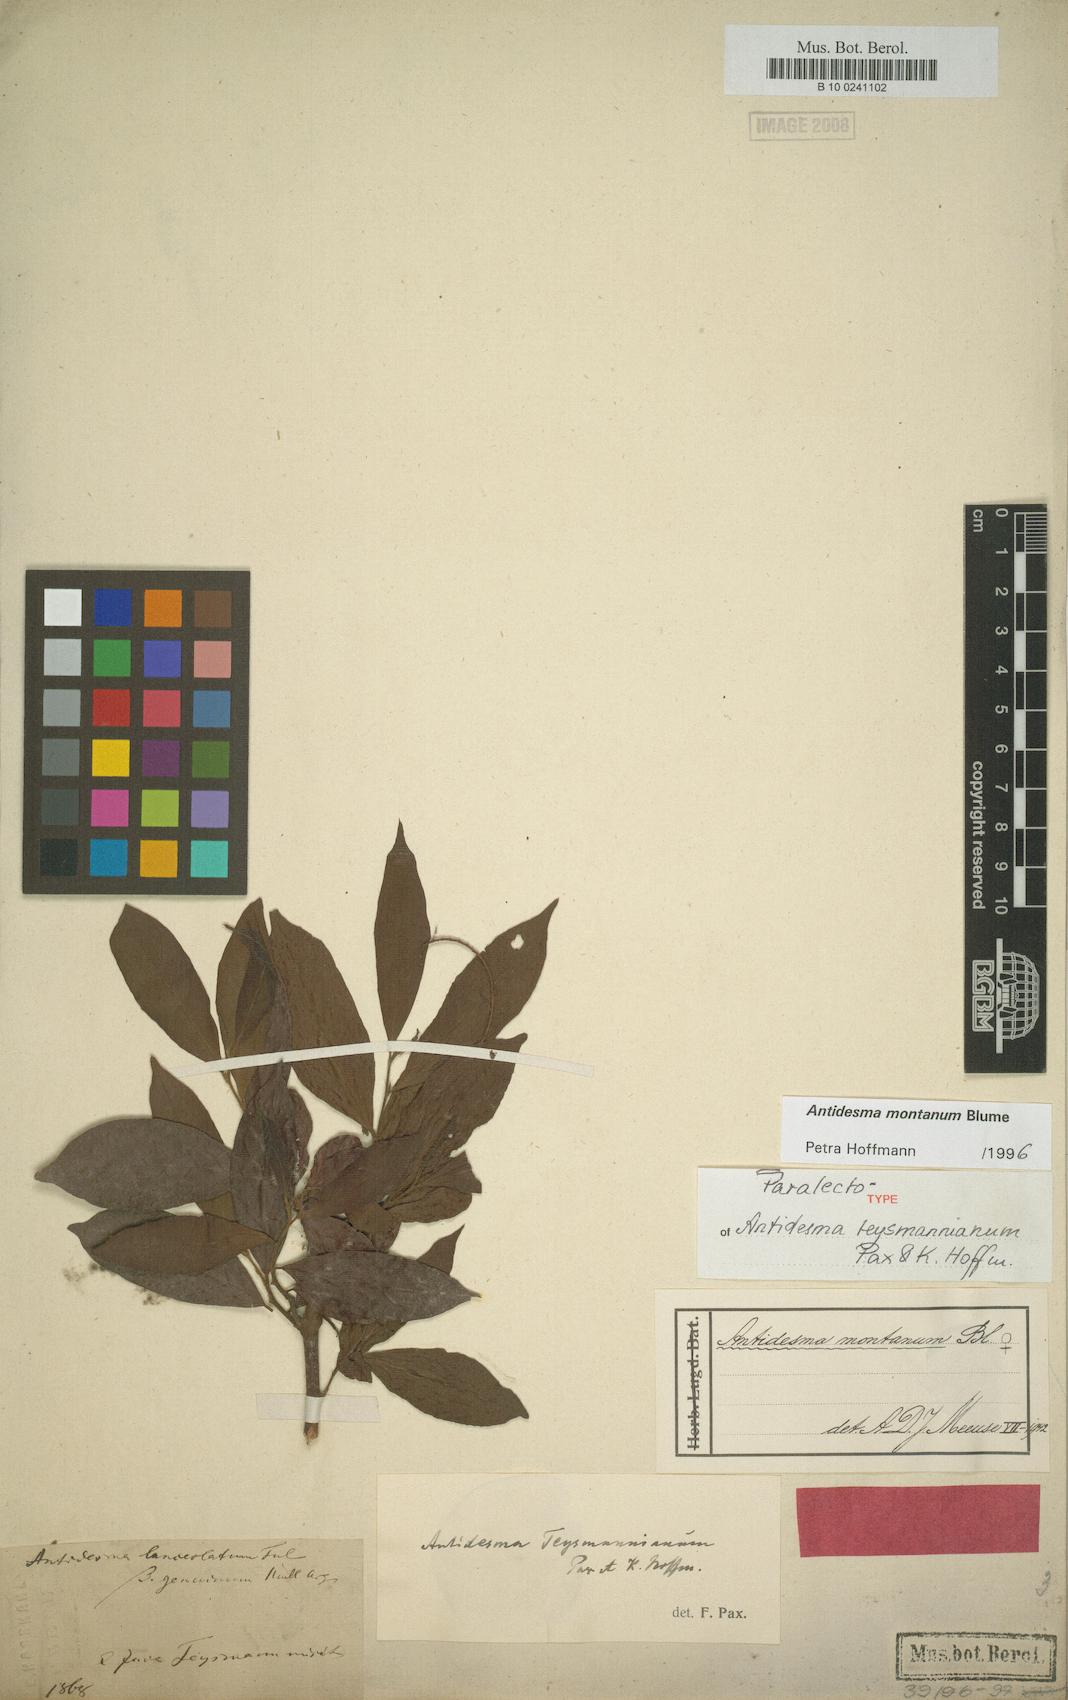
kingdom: Plantae
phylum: Tracheophyta
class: Magnoliopsida
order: Malpighiales
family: Phyllanthaceae
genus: Antidesma
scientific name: Antidesma montanum
